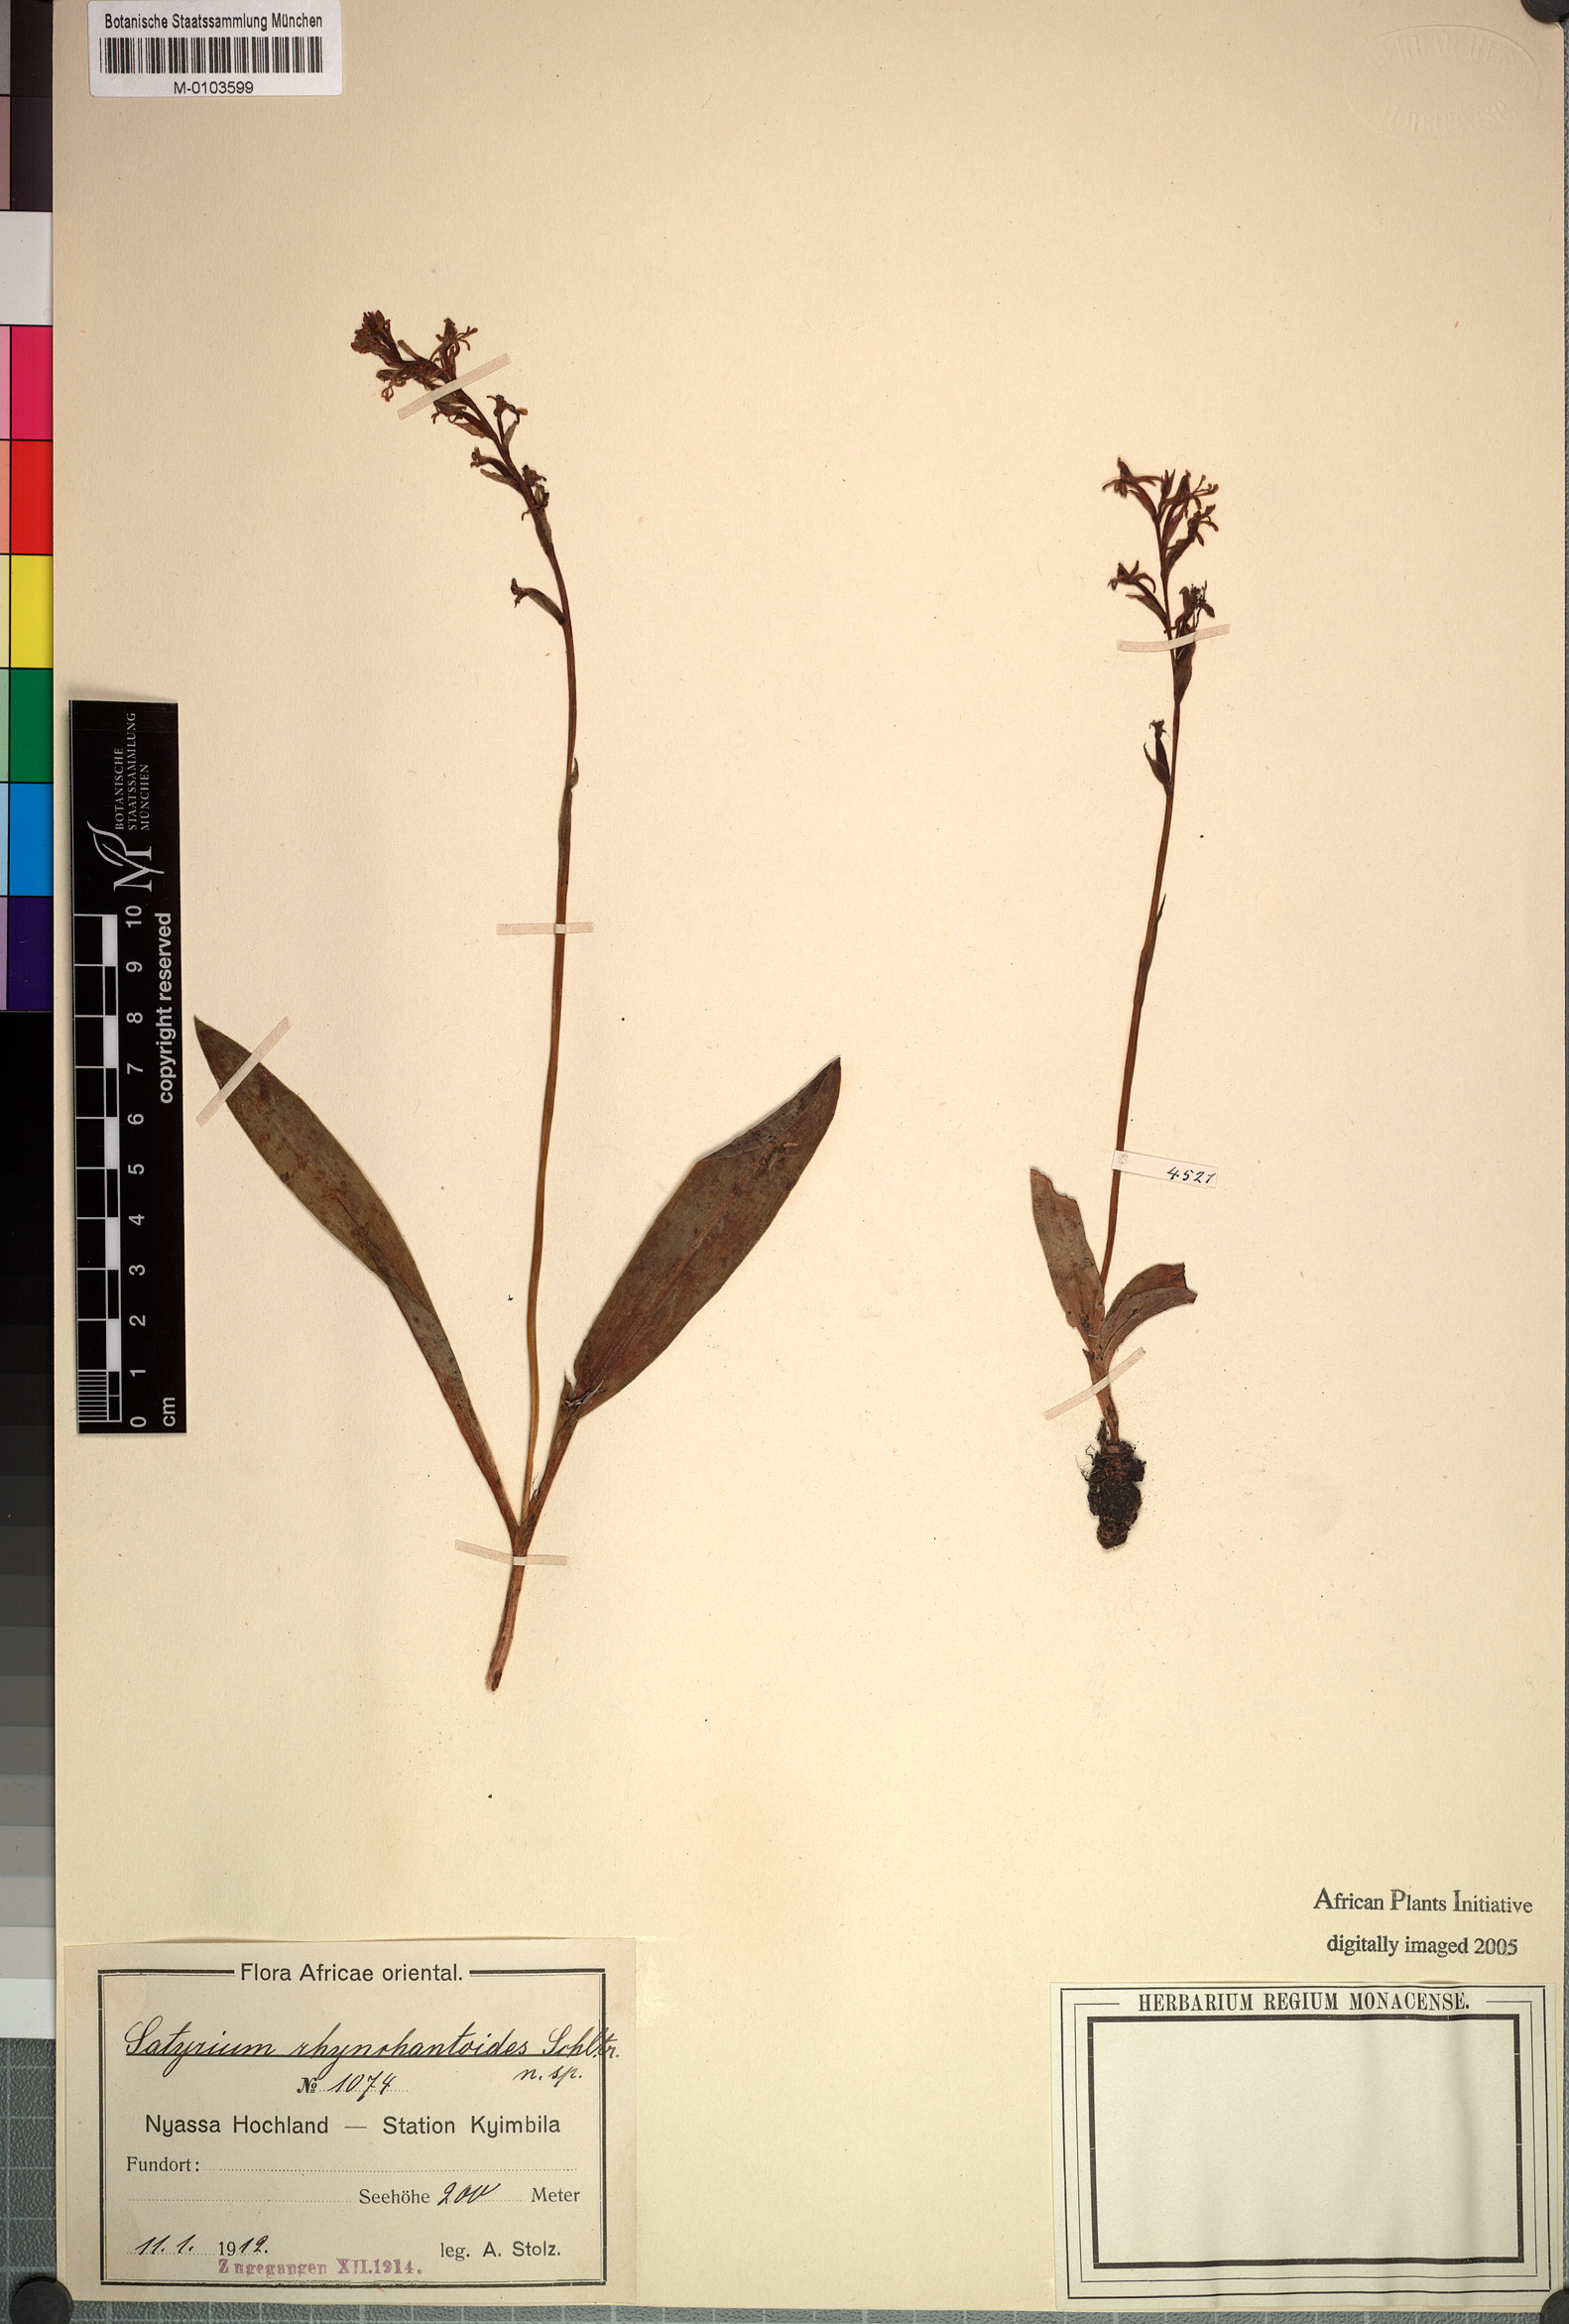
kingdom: Plantae
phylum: Tracheophyta
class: Liliopsida
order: Asparagales
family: Orchidaceae
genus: Satyrium
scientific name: Satyrium rhynchanthoides
